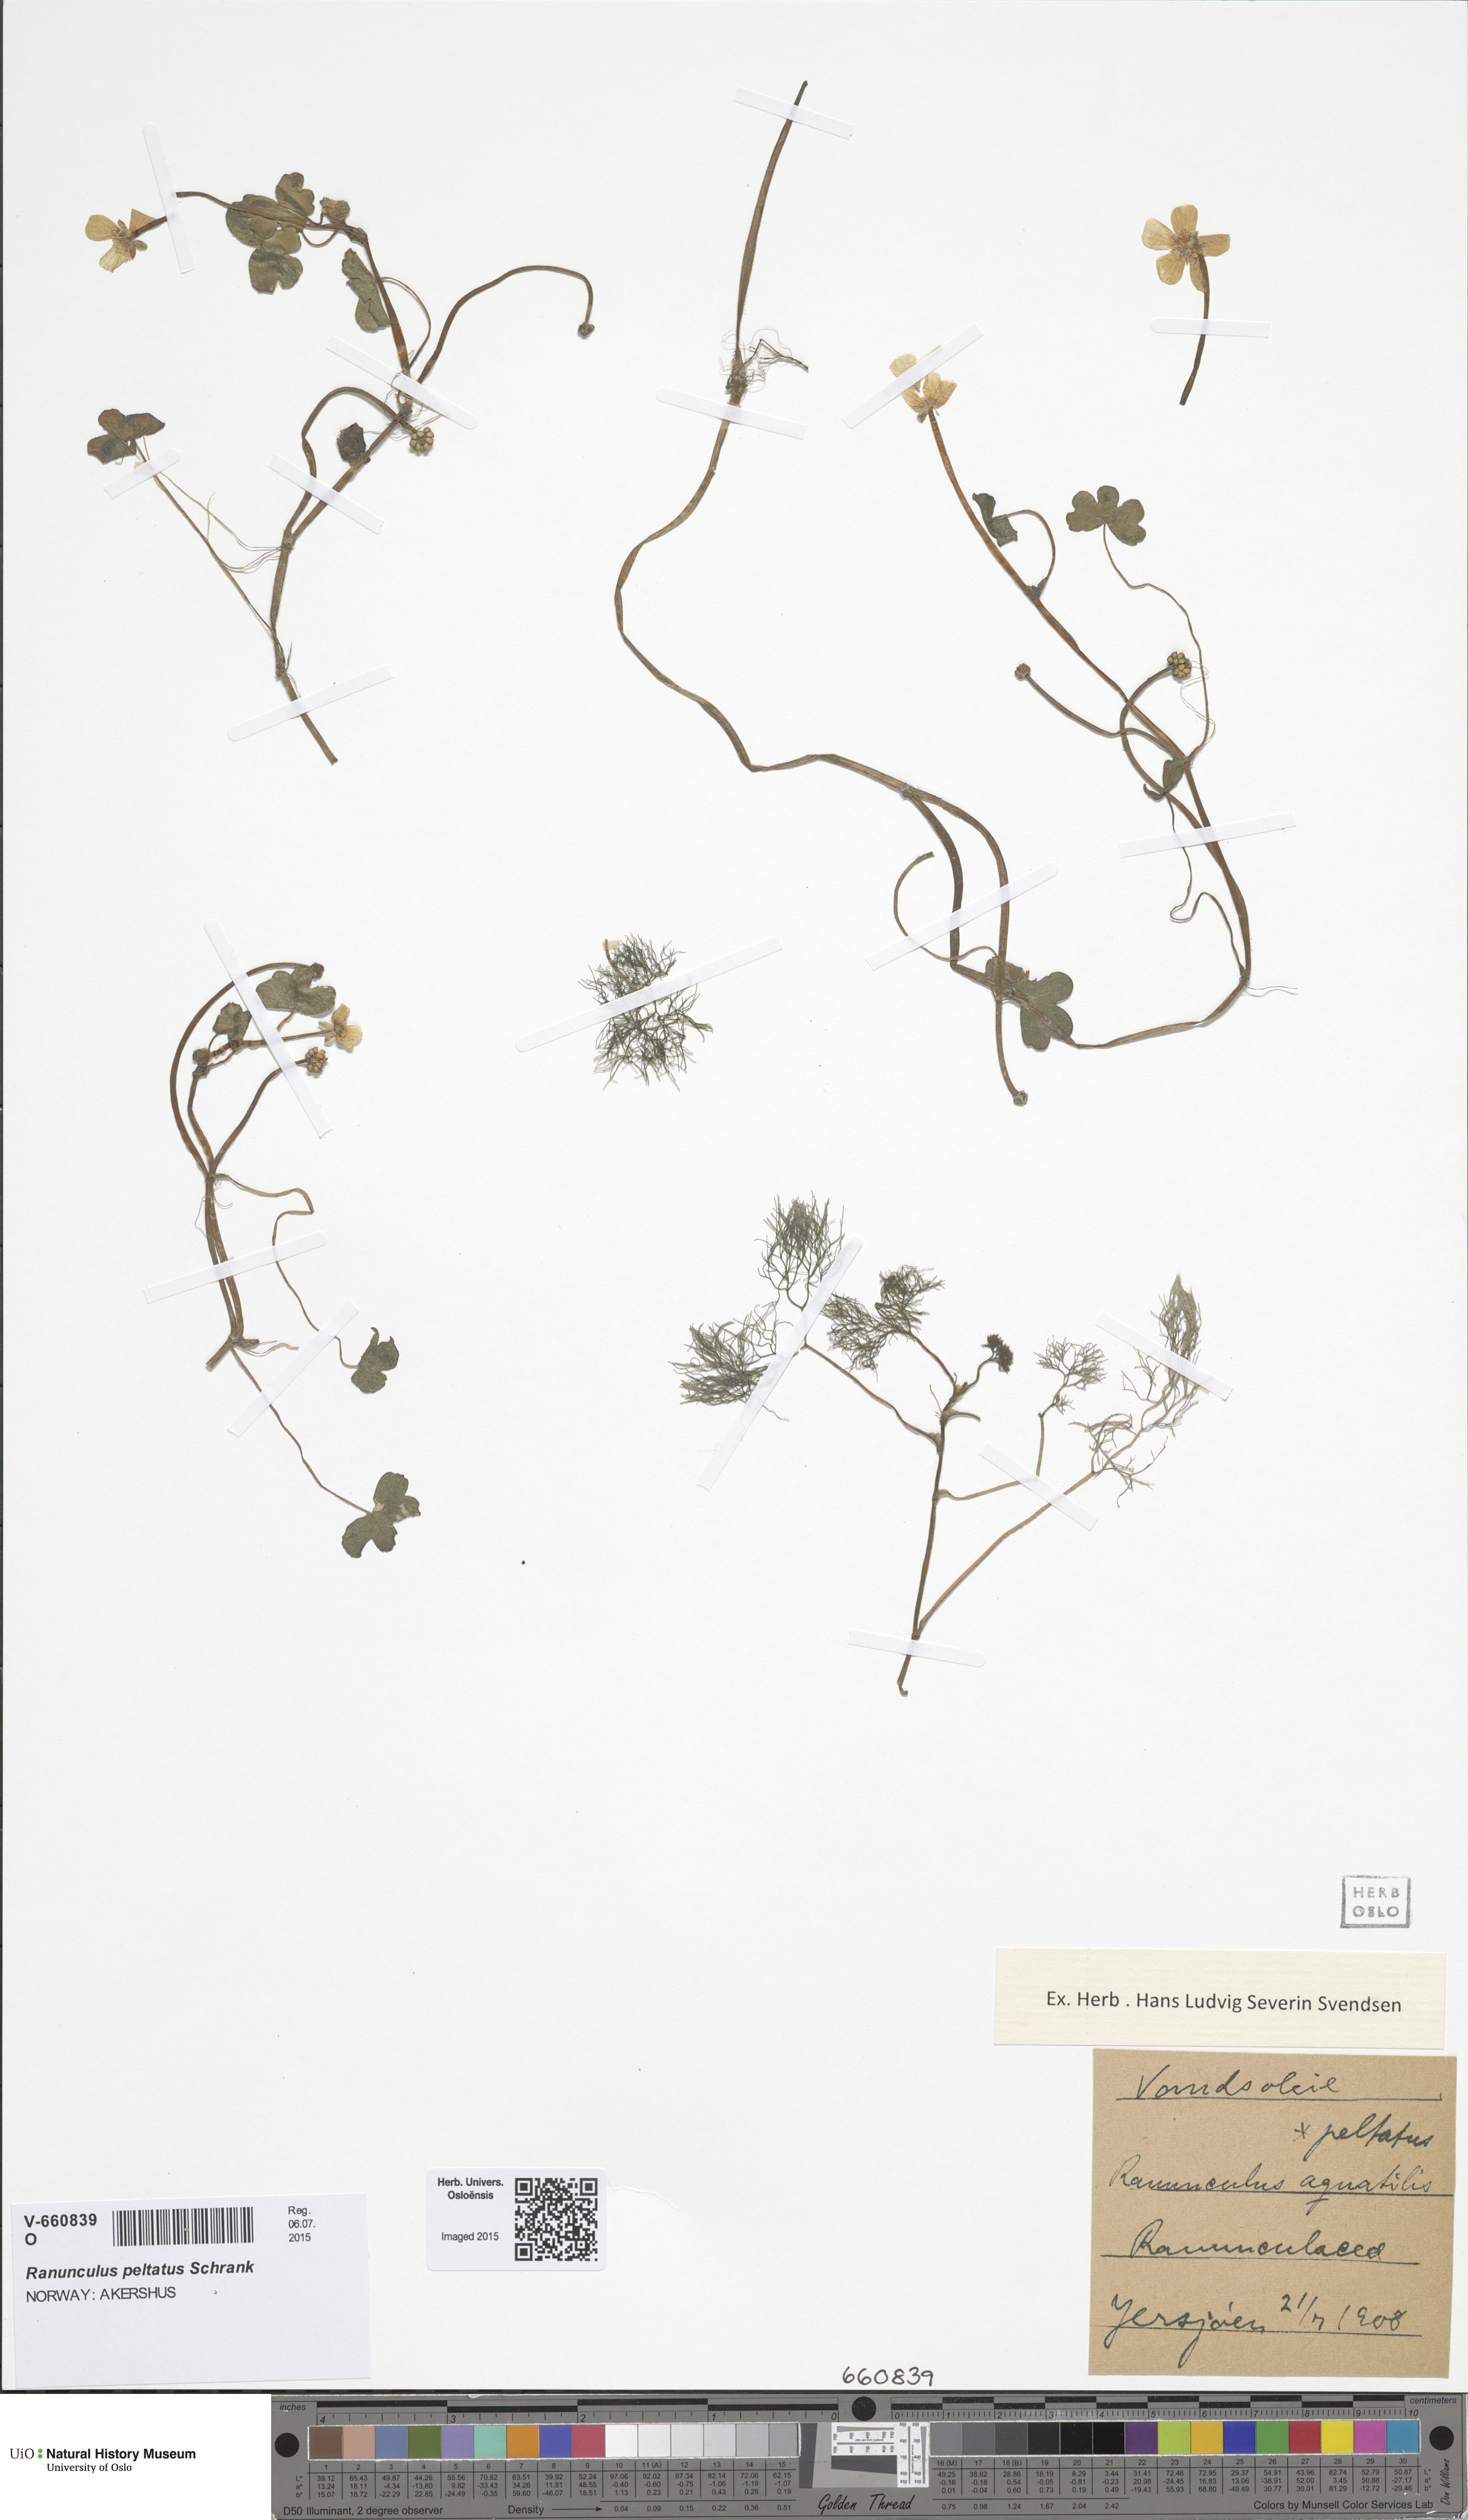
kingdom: Plantae
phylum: Tracheophyta
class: Magnoliopsida
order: Ranunculales
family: Ranunculaceae
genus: Ranunculus
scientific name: Ranunculus peltatus
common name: Pond water-crowfoot
